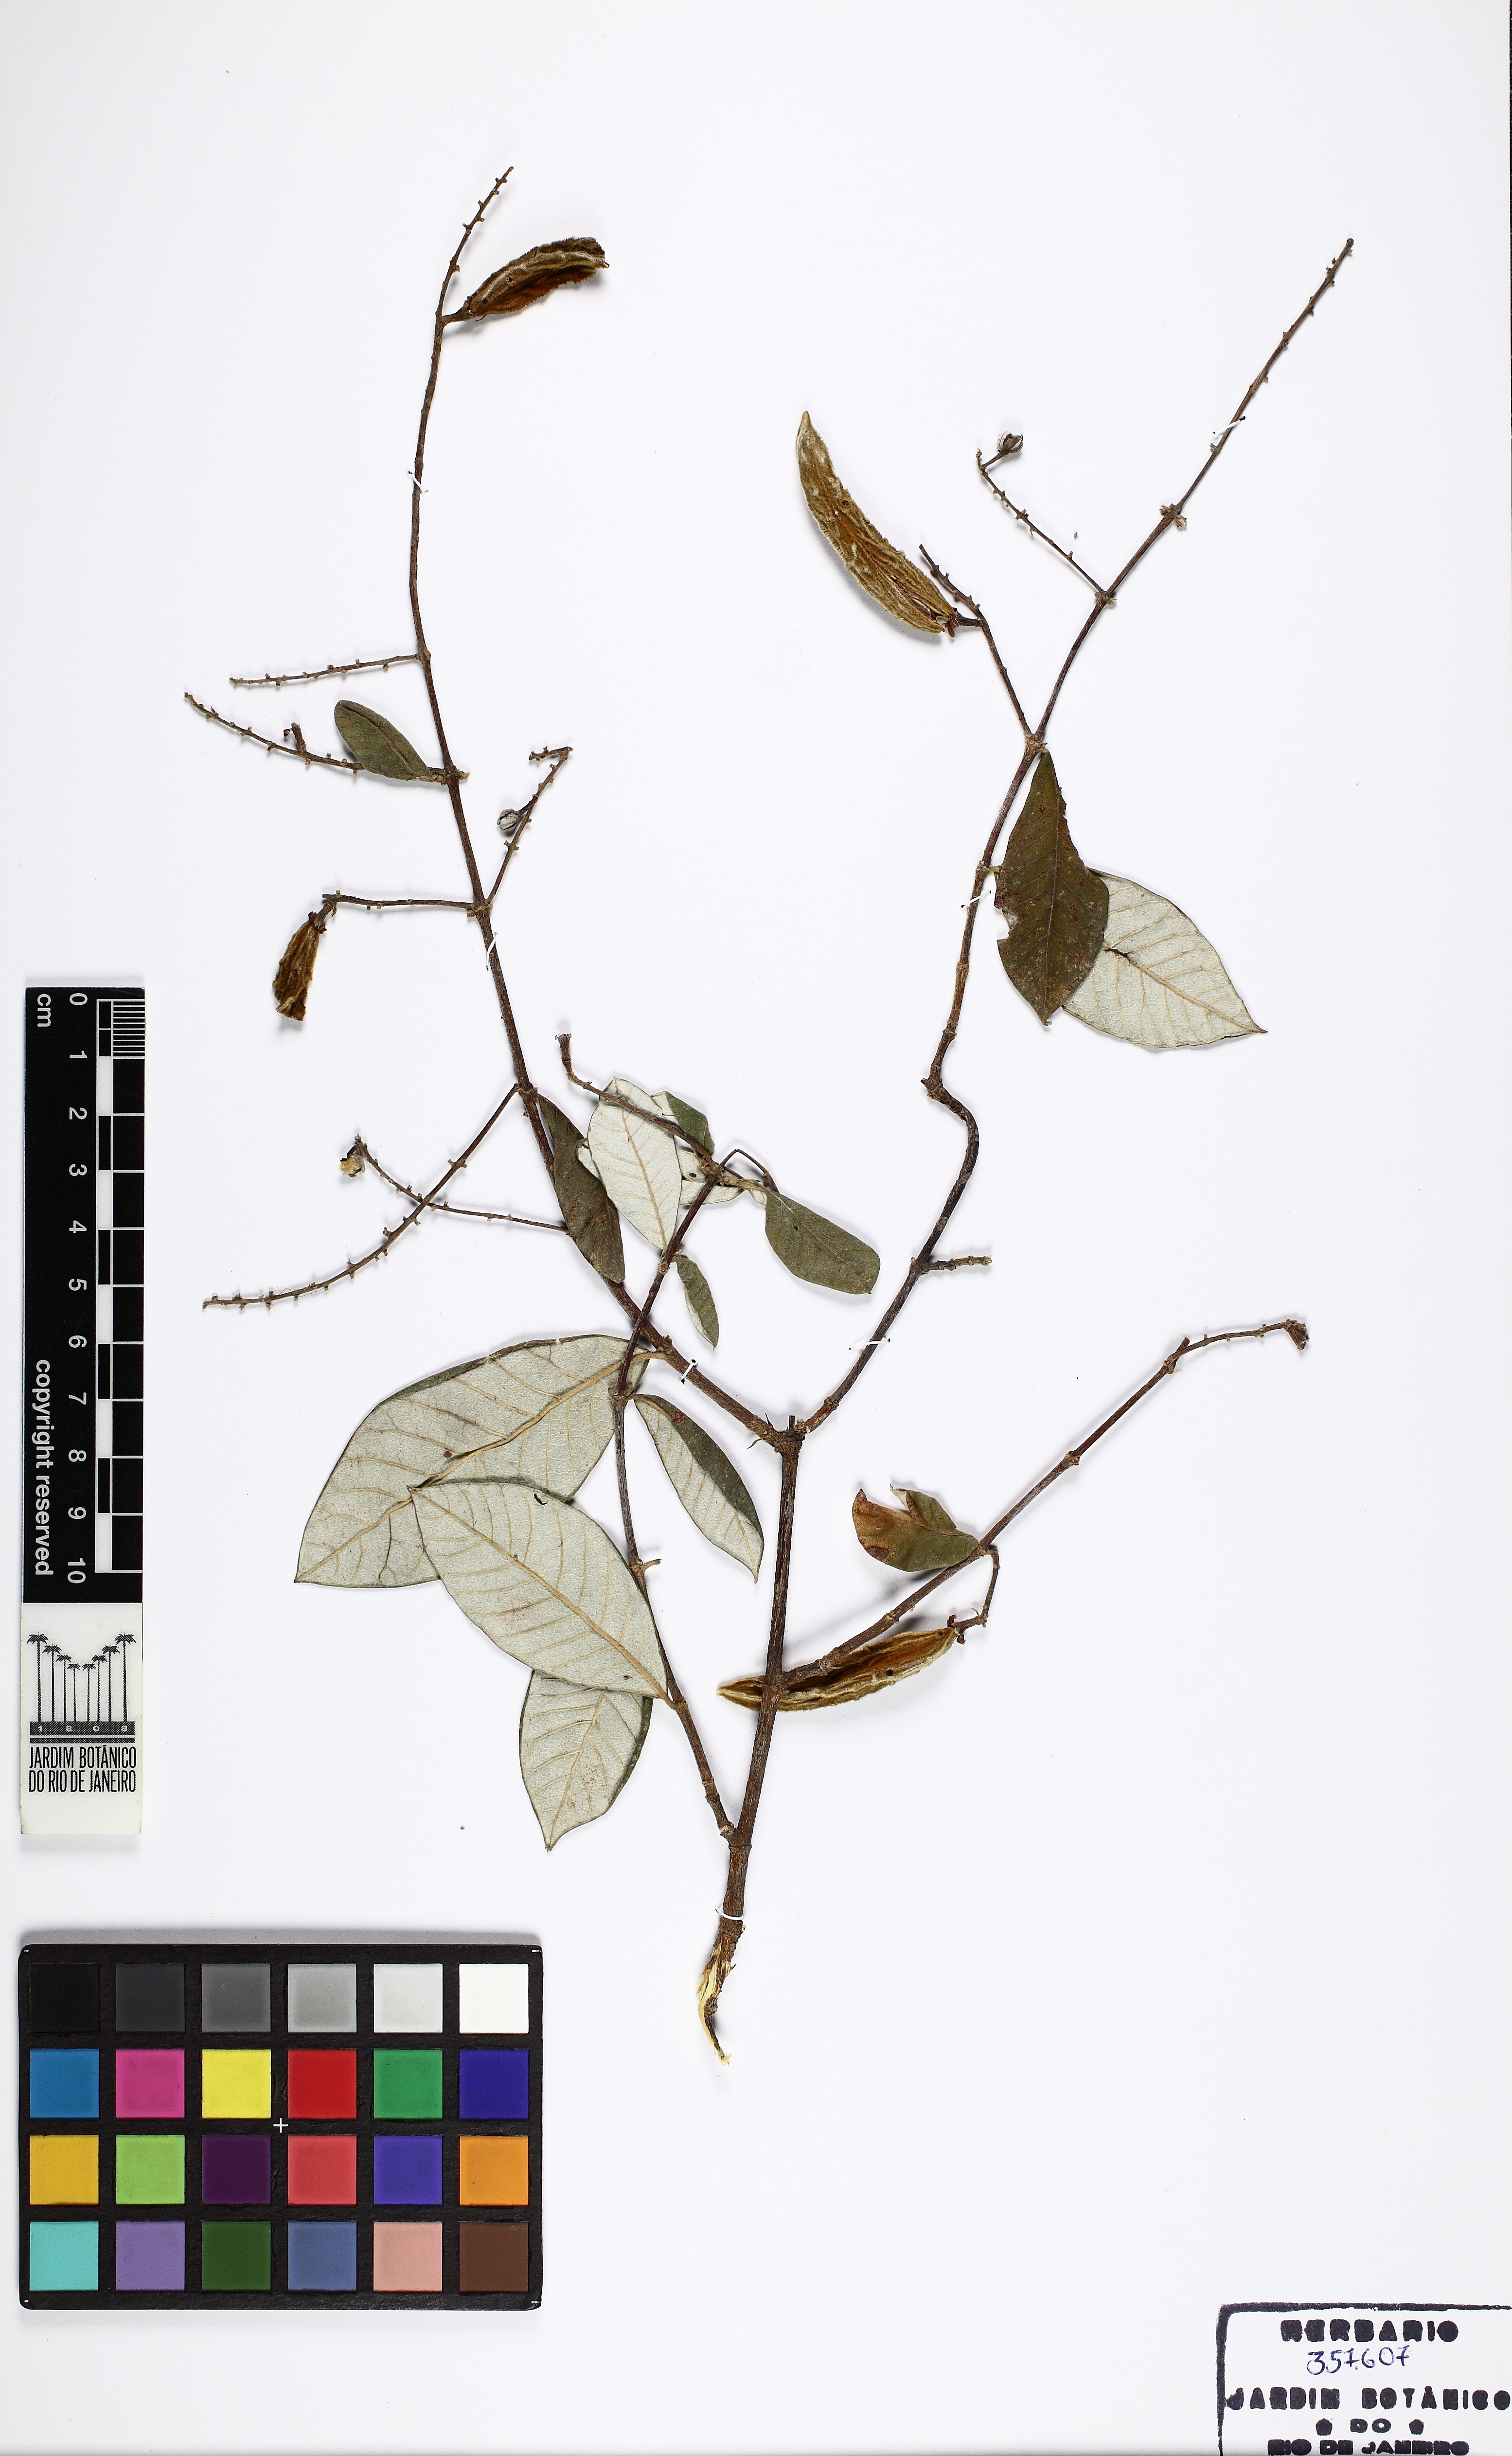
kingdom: Plantae
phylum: Tracheophyta
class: Magnoliopsida
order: Malpighiales
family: Trigoniaceae
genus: Trigonia
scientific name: Trigonia
